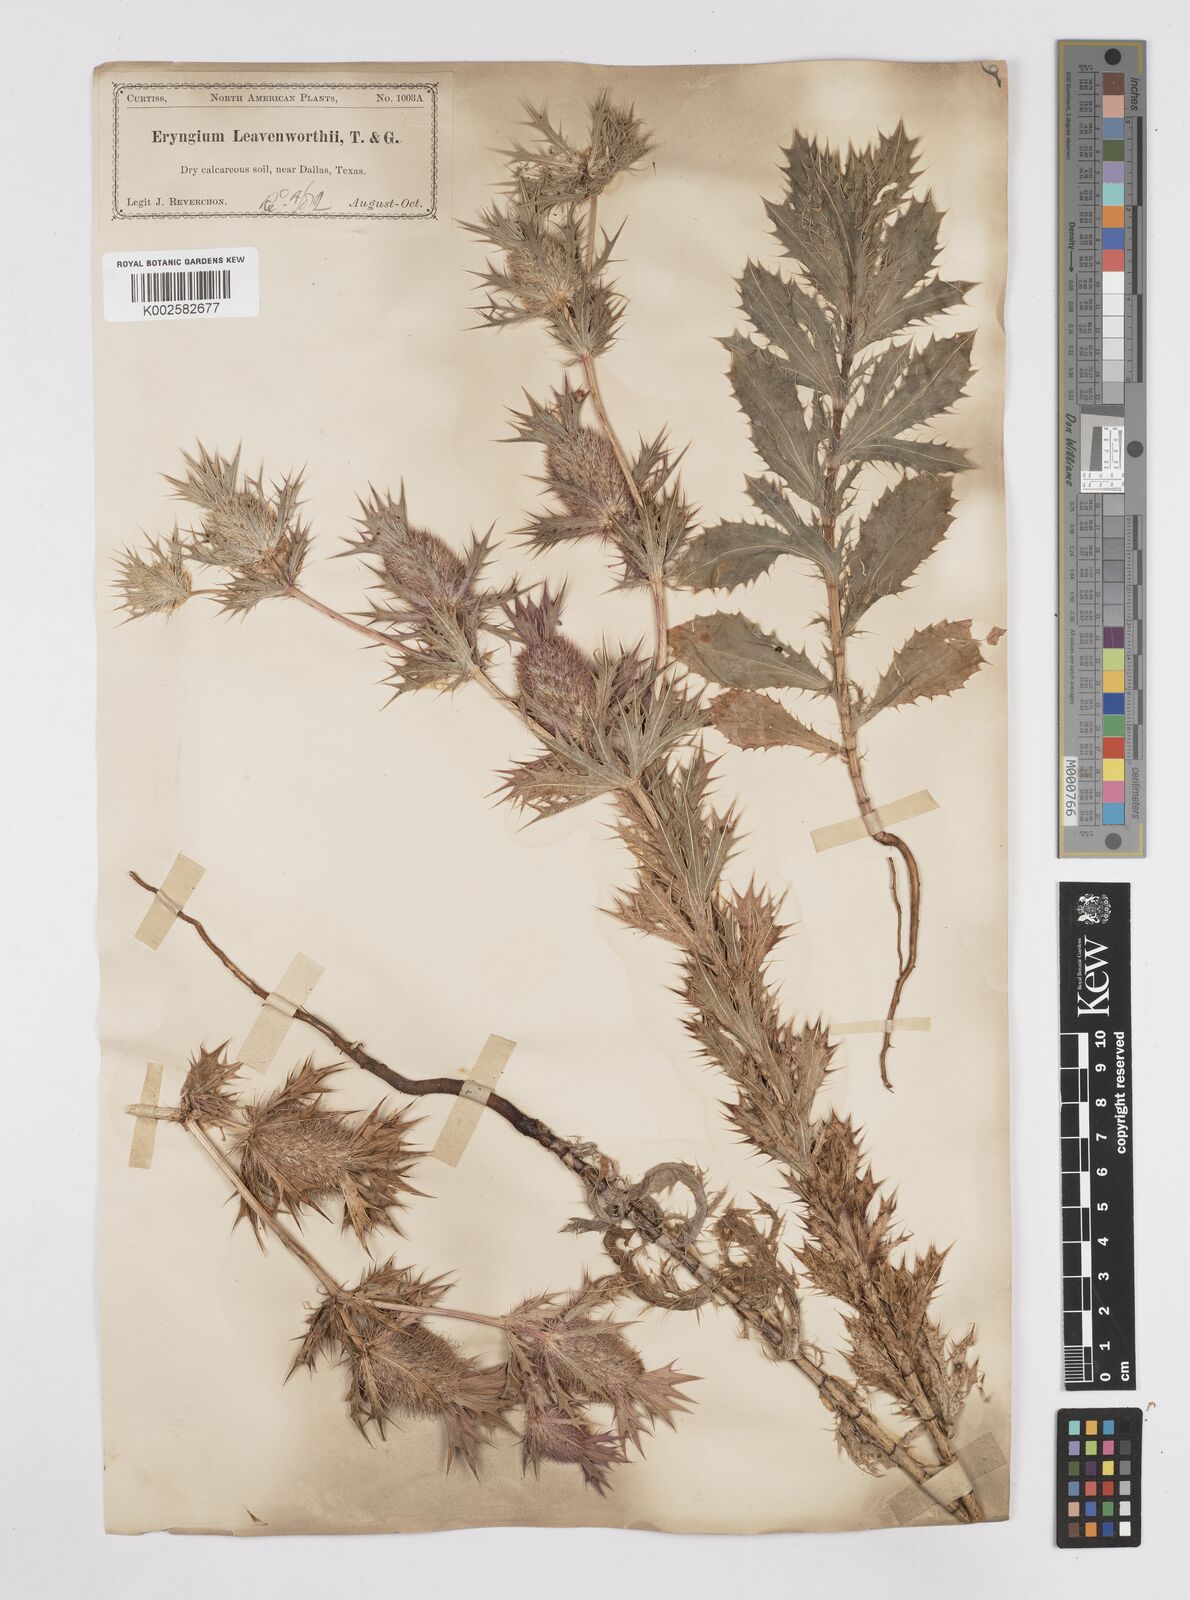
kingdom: Plantae
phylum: Tracheophyta
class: Magnoliopsida
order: Apiales
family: Apiaceae
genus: Eryngium
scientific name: Eryngium leavenworthii
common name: Leavenworth's eryngo
